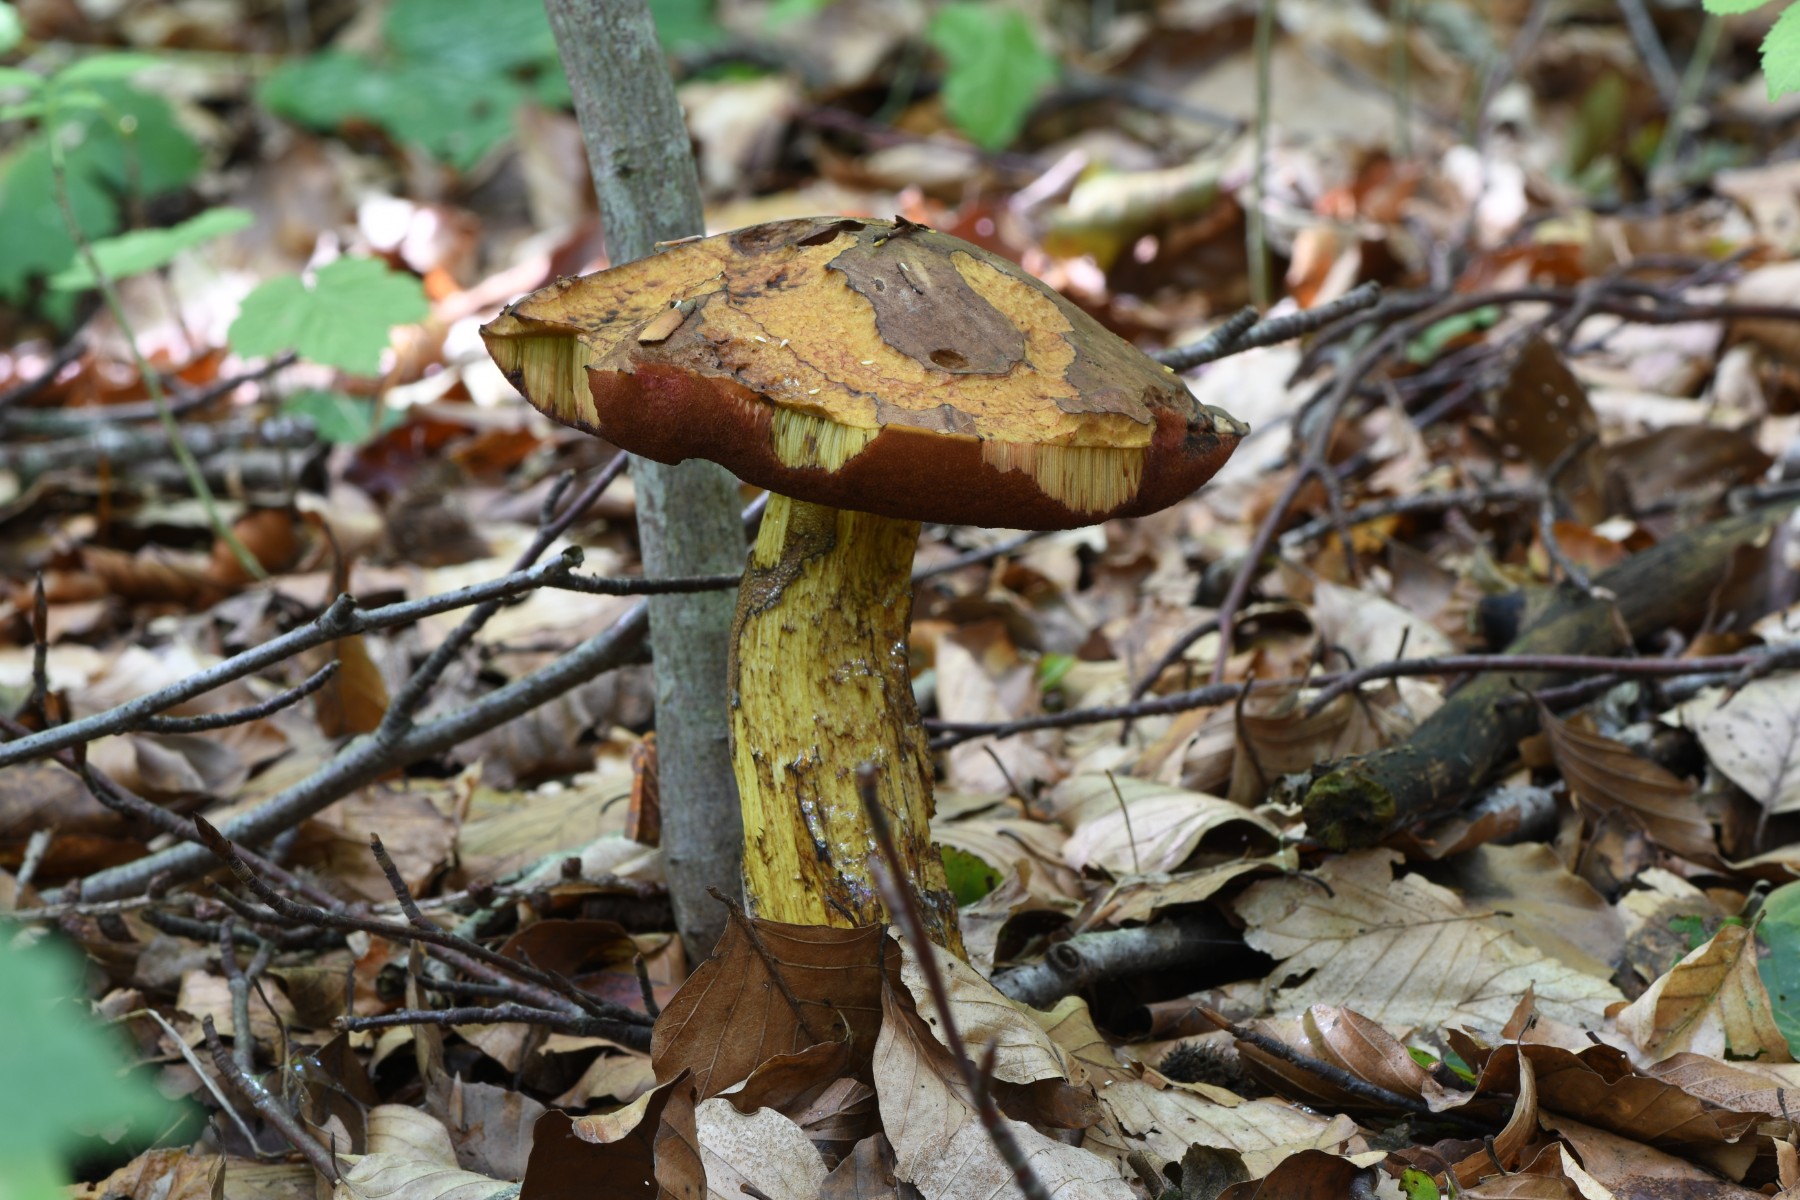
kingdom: Fungi
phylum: Basidiomycota
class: Agaricomycetes
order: Boletales
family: Boletaceae
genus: Neoboletus
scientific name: Neoboletus erythropus
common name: punktstokket indigorørhat
